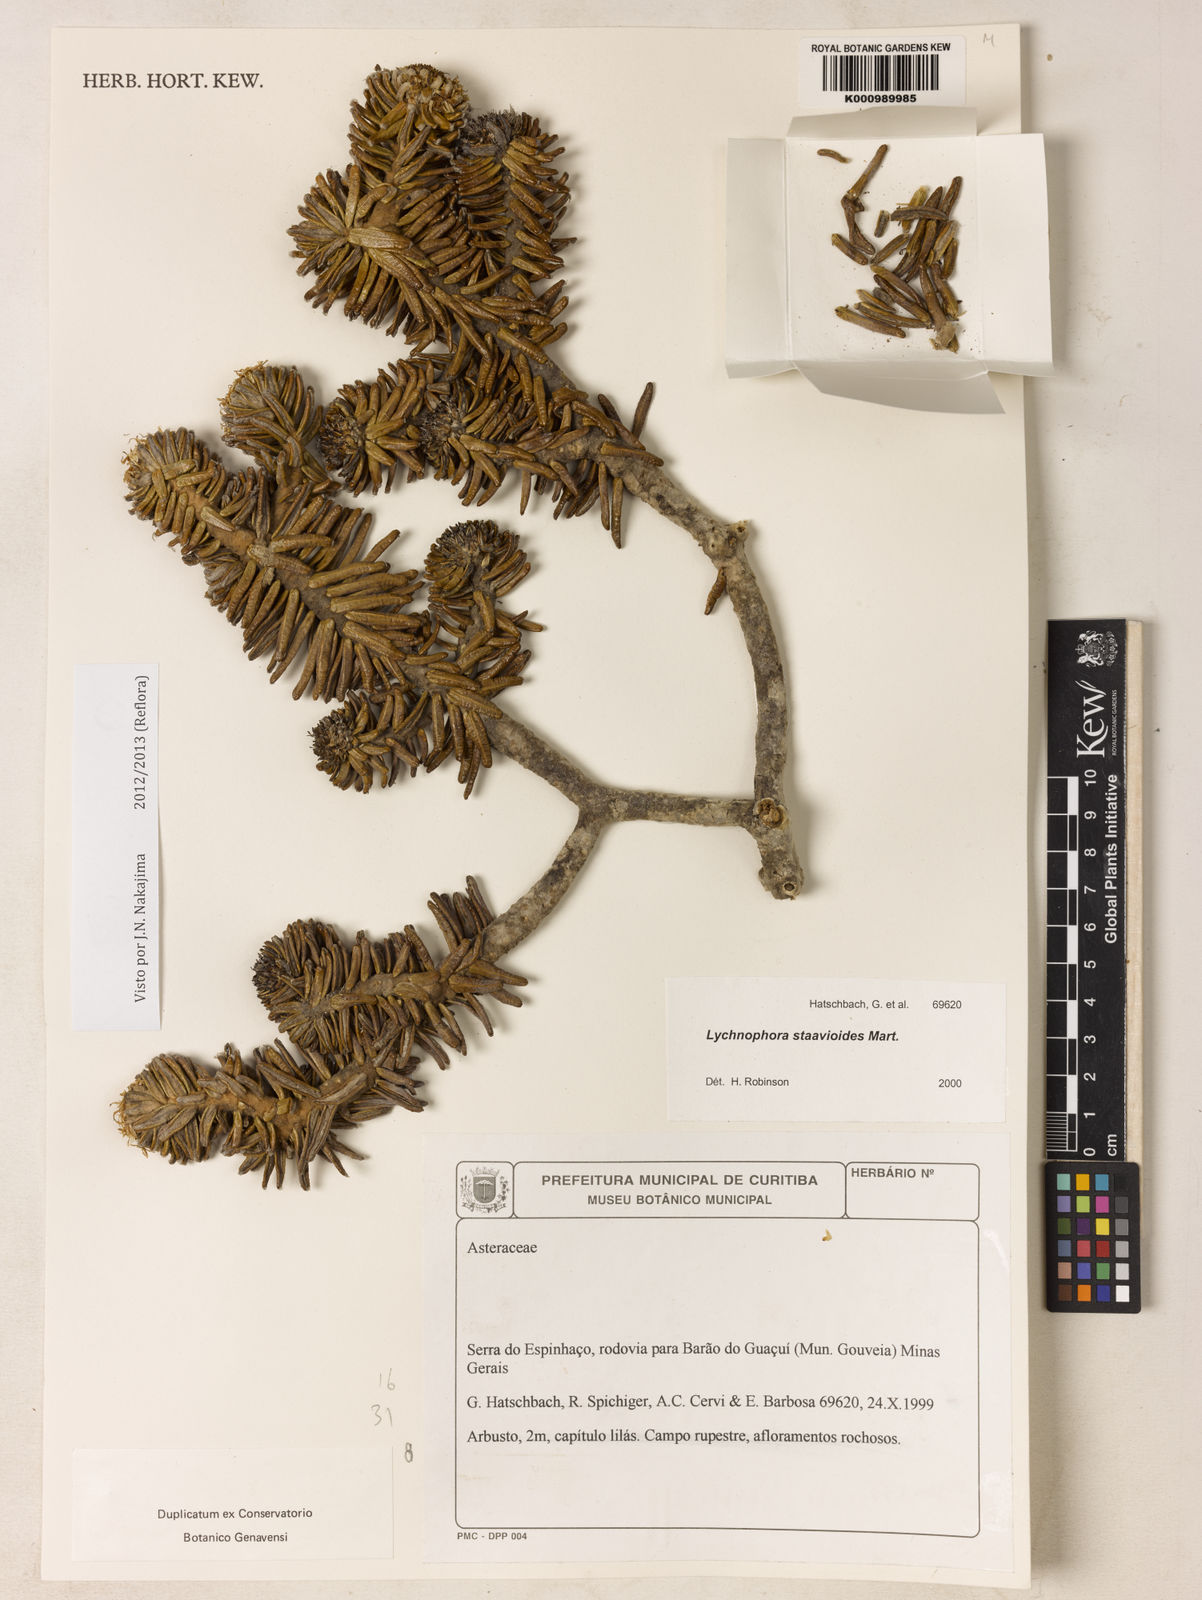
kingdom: Plantae
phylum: Tracheophyta
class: Magnoliopsida
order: Asterales
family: Asteraceae
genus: Lychnophora
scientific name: Lychnophora staavioides
